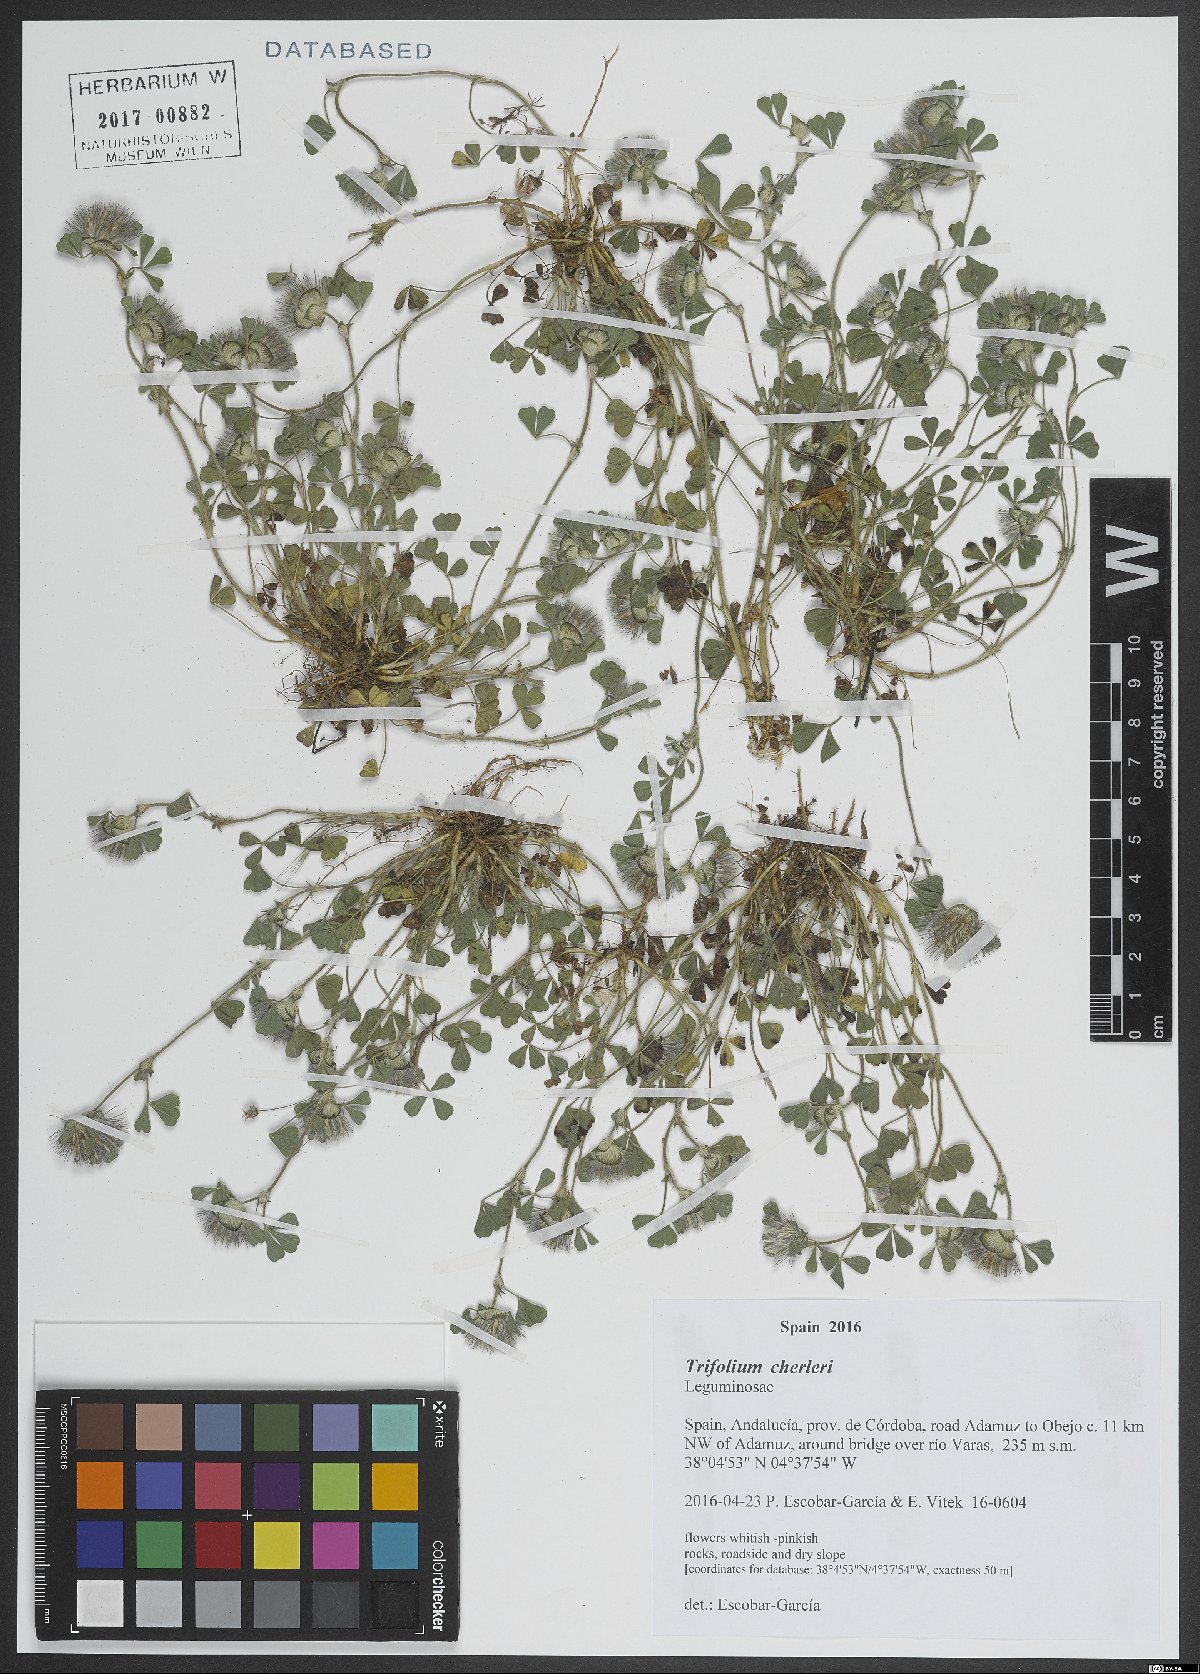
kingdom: Plantae
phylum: Tracheophyta
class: Magnoliopsida
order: Fabales
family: Fabaceae
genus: Trifolium
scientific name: Trifolium cherleri
